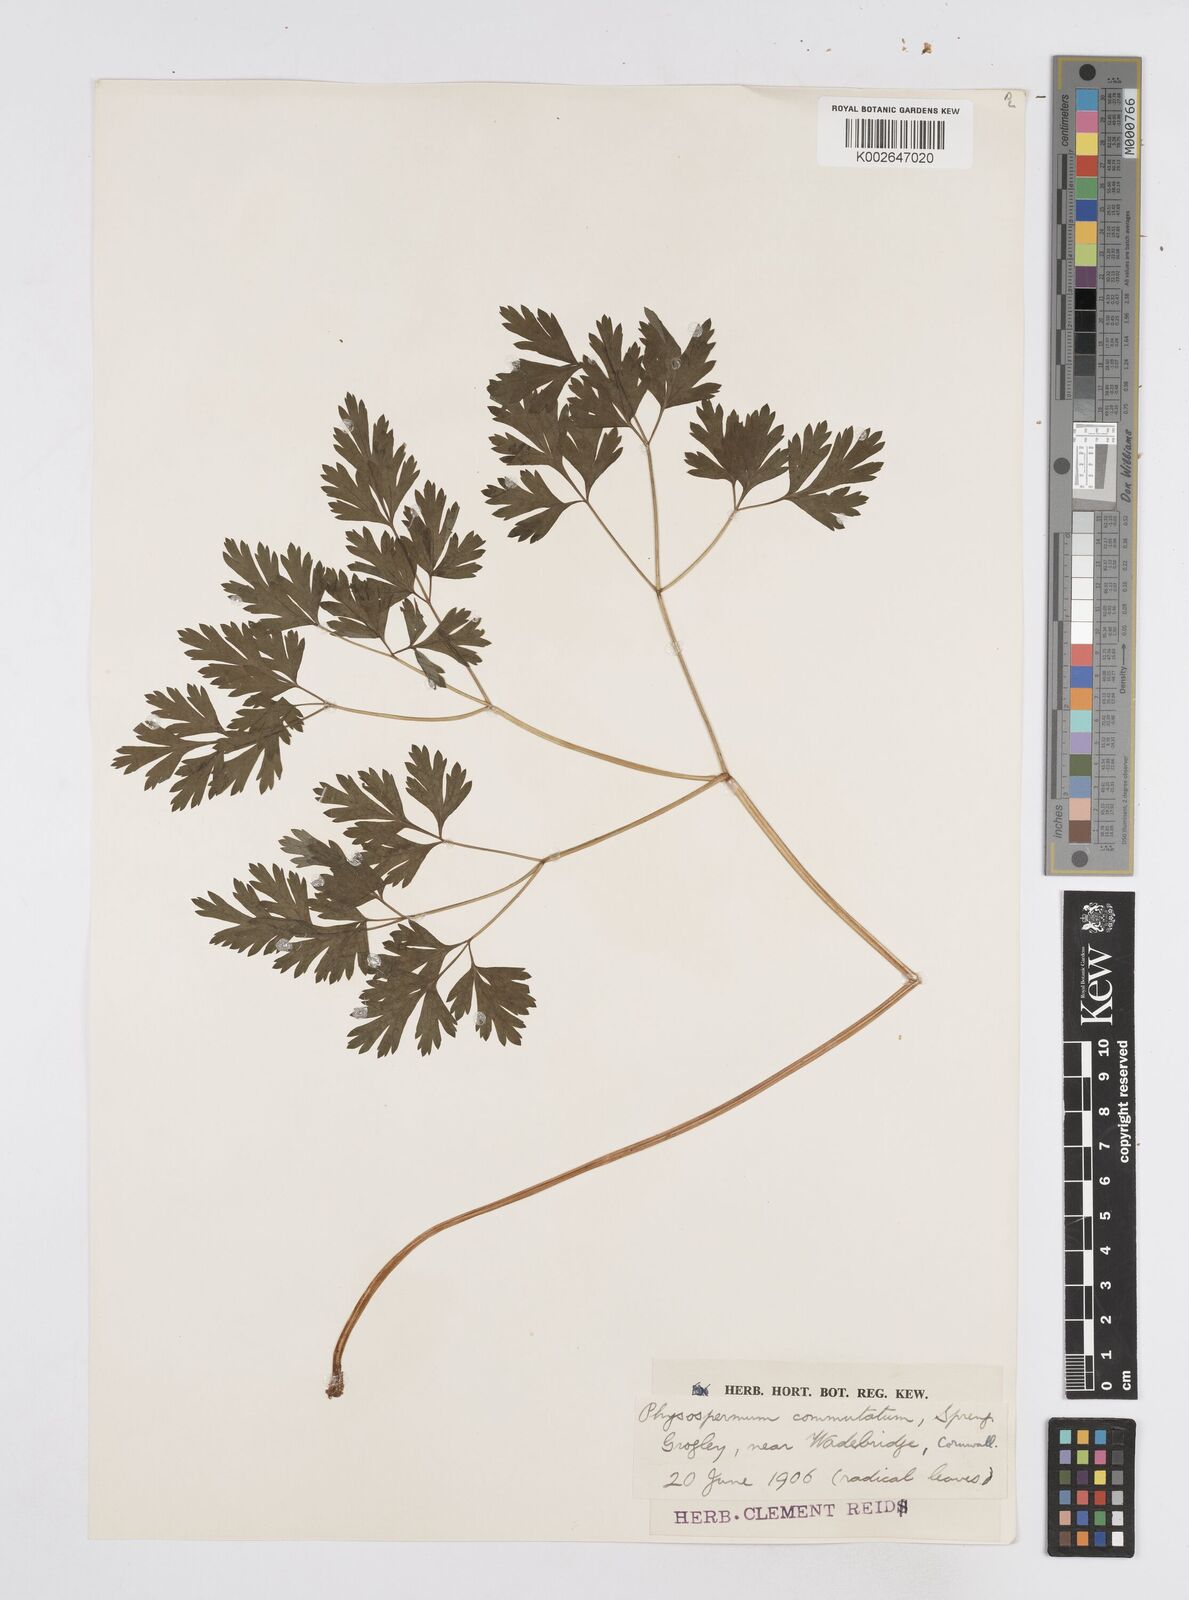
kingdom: Plantae
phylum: Tracheophyta
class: Magnoliopsida
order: Apiales
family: Apiaceae
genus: Physospermum
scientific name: Physospermum cornubiense
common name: Bladderseed
